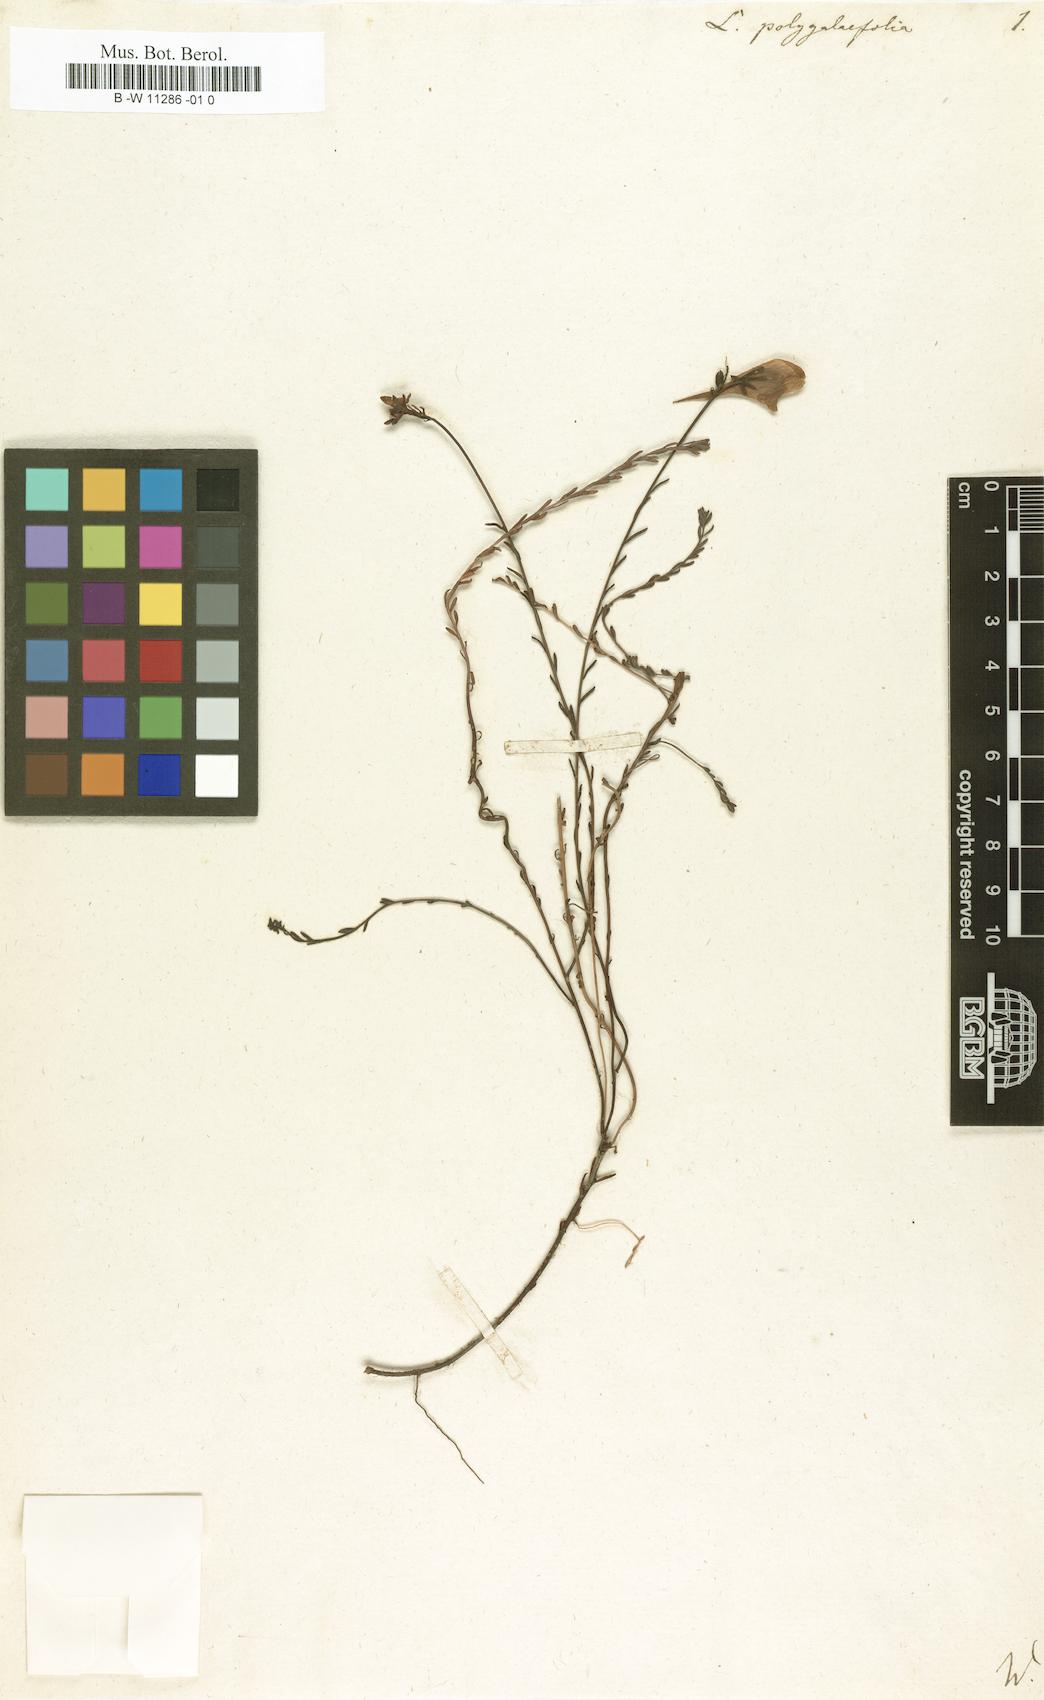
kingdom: Plantae
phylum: Tracheophyta
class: Magnoliopsida
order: Lamiales
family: Plantaginaceae
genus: Linaria
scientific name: Linaria polygalifolia
